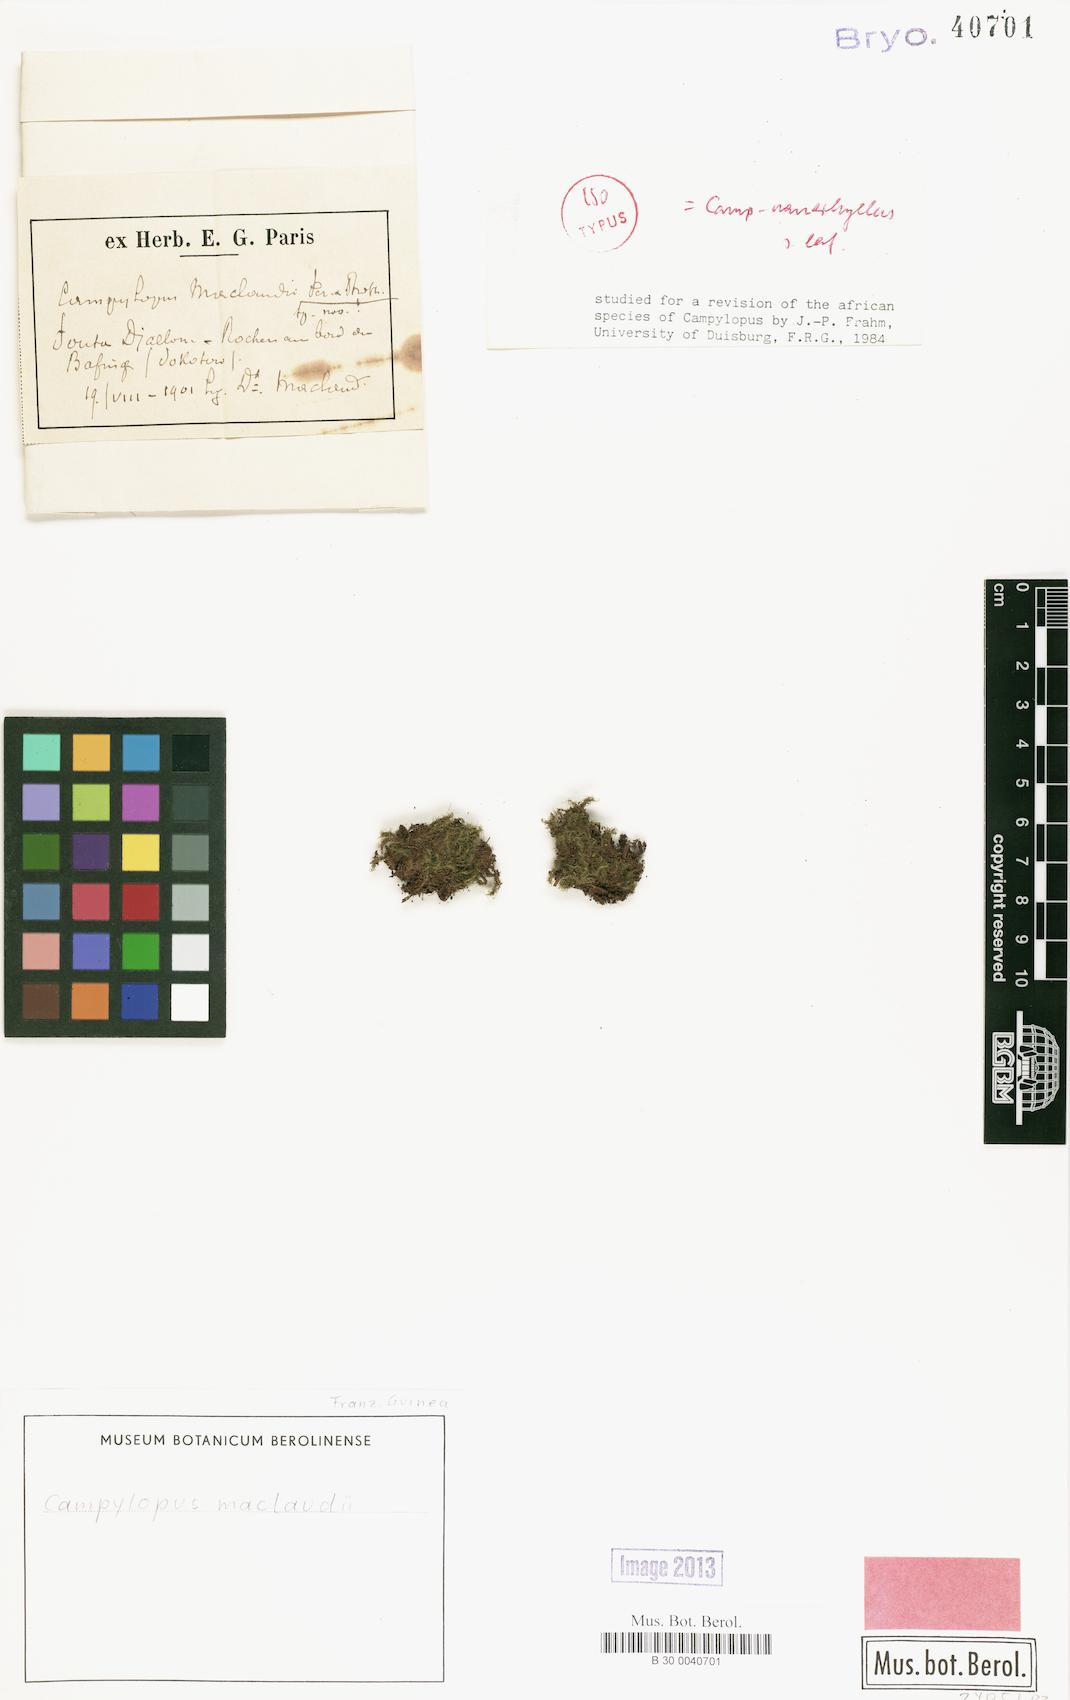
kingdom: Plantae
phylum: Bryophyta
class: Bryopsida
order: Dicranales
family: Leucobryaceae
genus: Campylopus
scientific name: Campylopus nanophyllus
